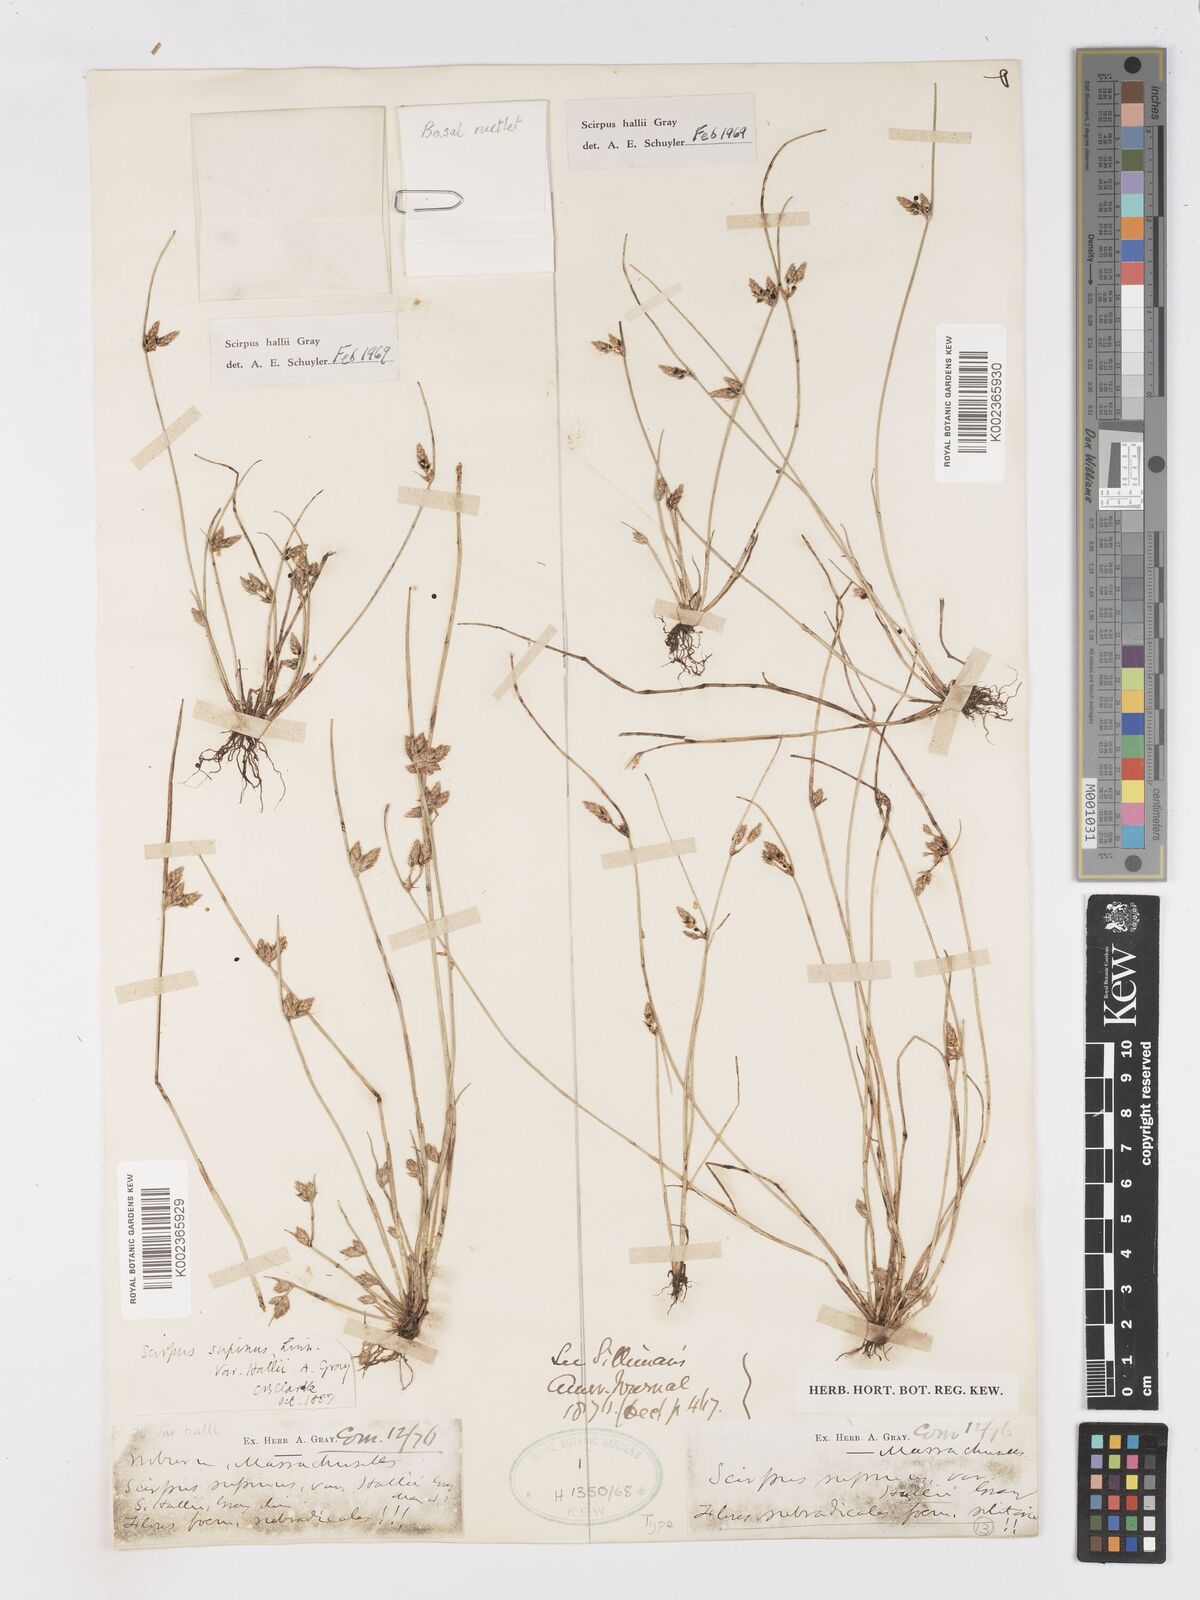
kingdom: Plantae
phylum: Tracheophyta
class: Liliopsida
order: Poales
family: Cyperaceae
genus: Schoenoplectiella
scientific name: Schoenoplectiella hallii
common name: Hall's bullrush
